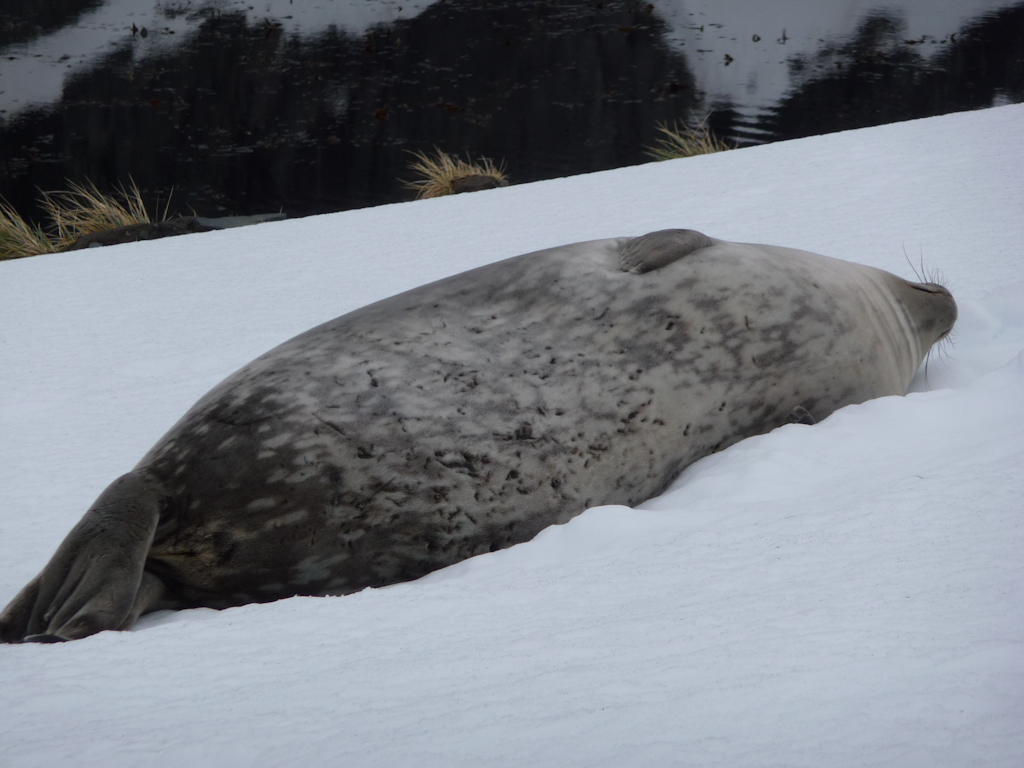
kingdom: Animalia
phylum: Chordata
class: Mammalia
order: Carnivora
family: Phocidae
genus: Leptonychotes
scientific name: Leptonychotes weddellii
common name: Weddell Seal
